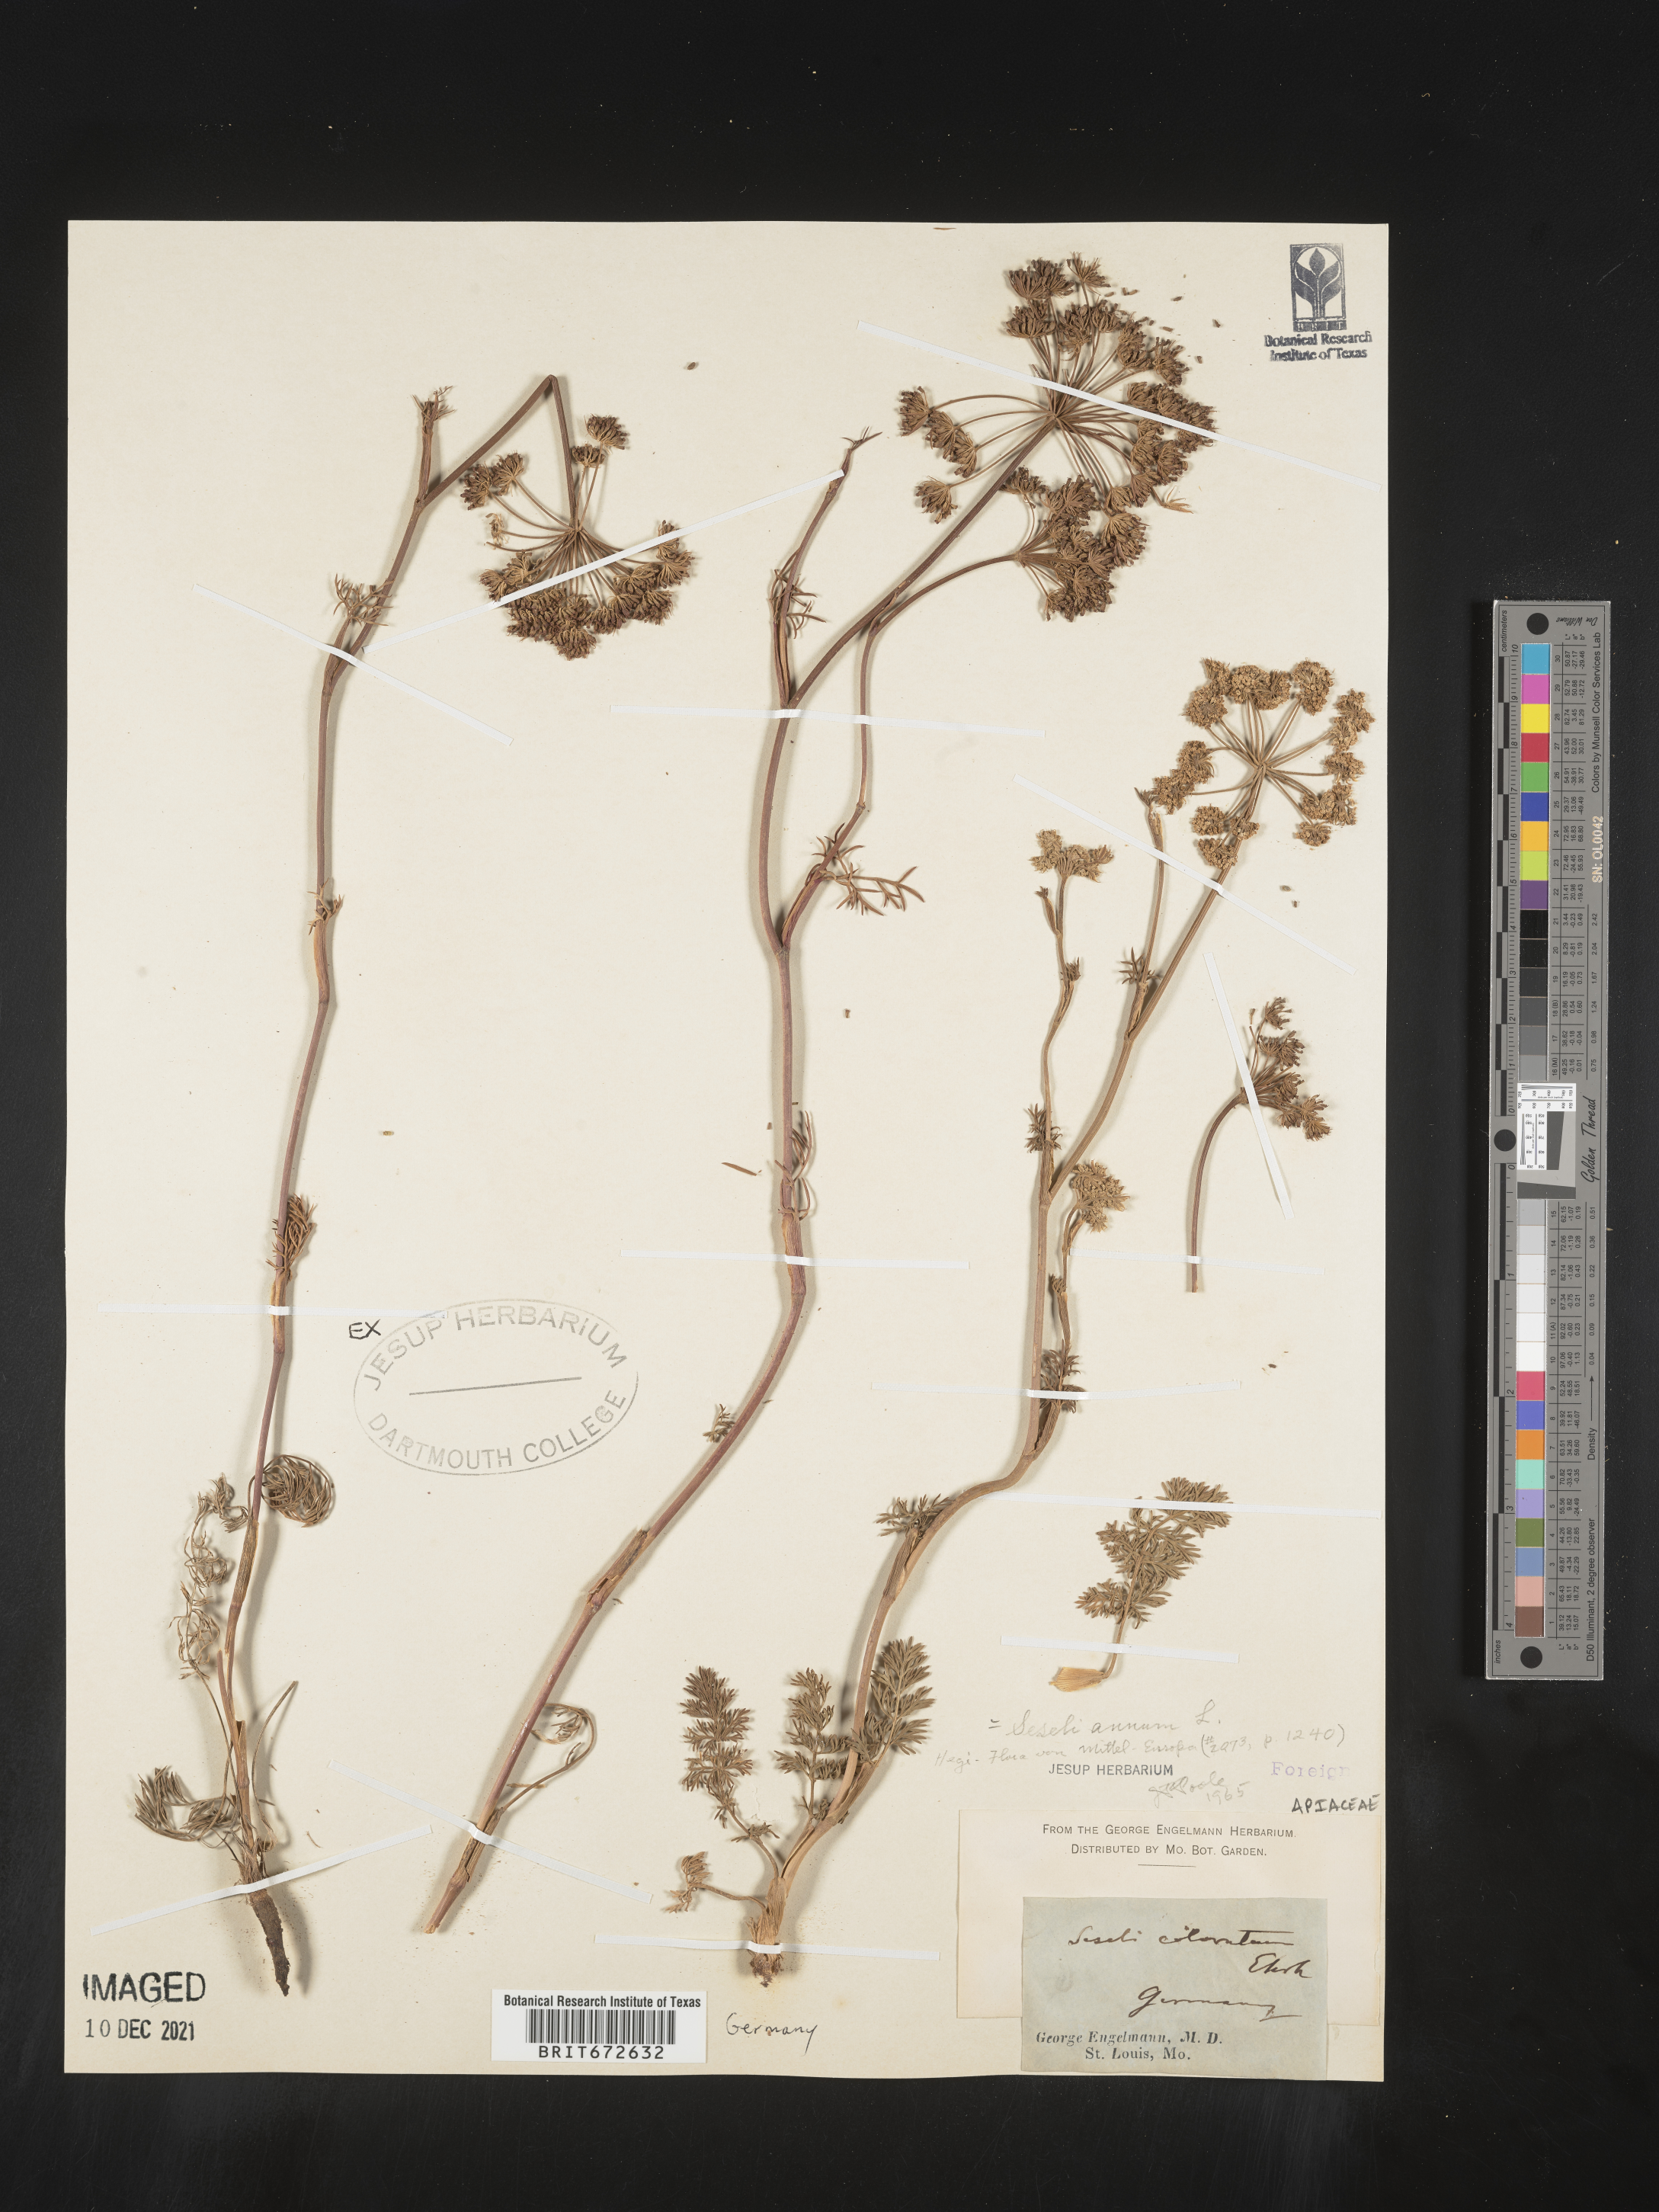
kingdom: Plantae
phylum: Tracheophyta
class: Magnoliopsida
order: Apiales
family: Apiaceae
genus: Seseli
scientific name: Seseli
